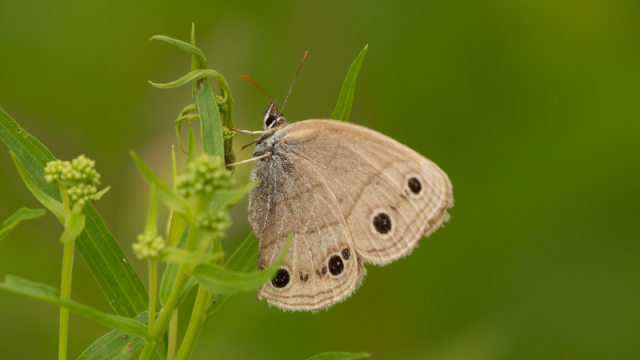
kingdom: Animalia
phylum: Arthropoda
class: Insecta
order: Lepidoptera
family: Nymphalidae
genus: Euptychia
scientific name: Euptychia cymela
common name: Little Wood Satyr
